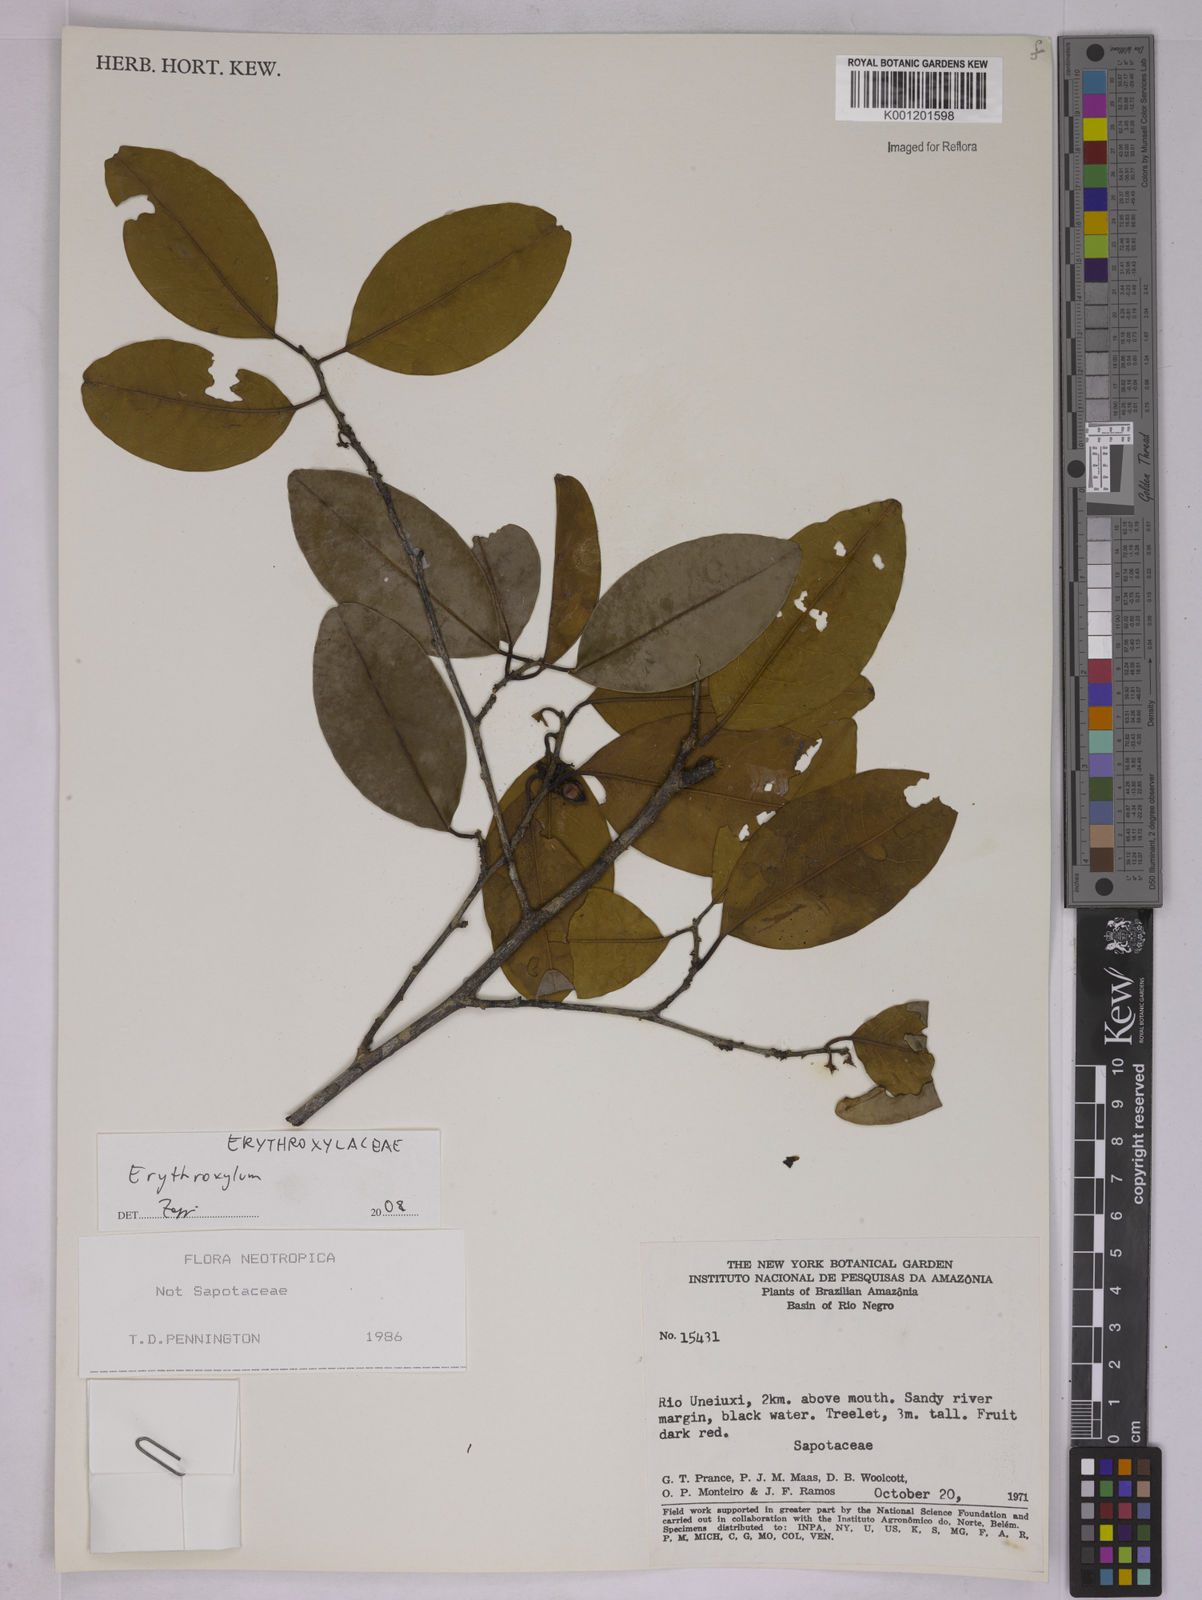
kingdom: Plantae
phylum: Tracheophyta
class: Magnoliopsida
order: Malpighiales
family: Erythroxylaceae
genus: Erythroxylum
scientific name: Erythroxylum
